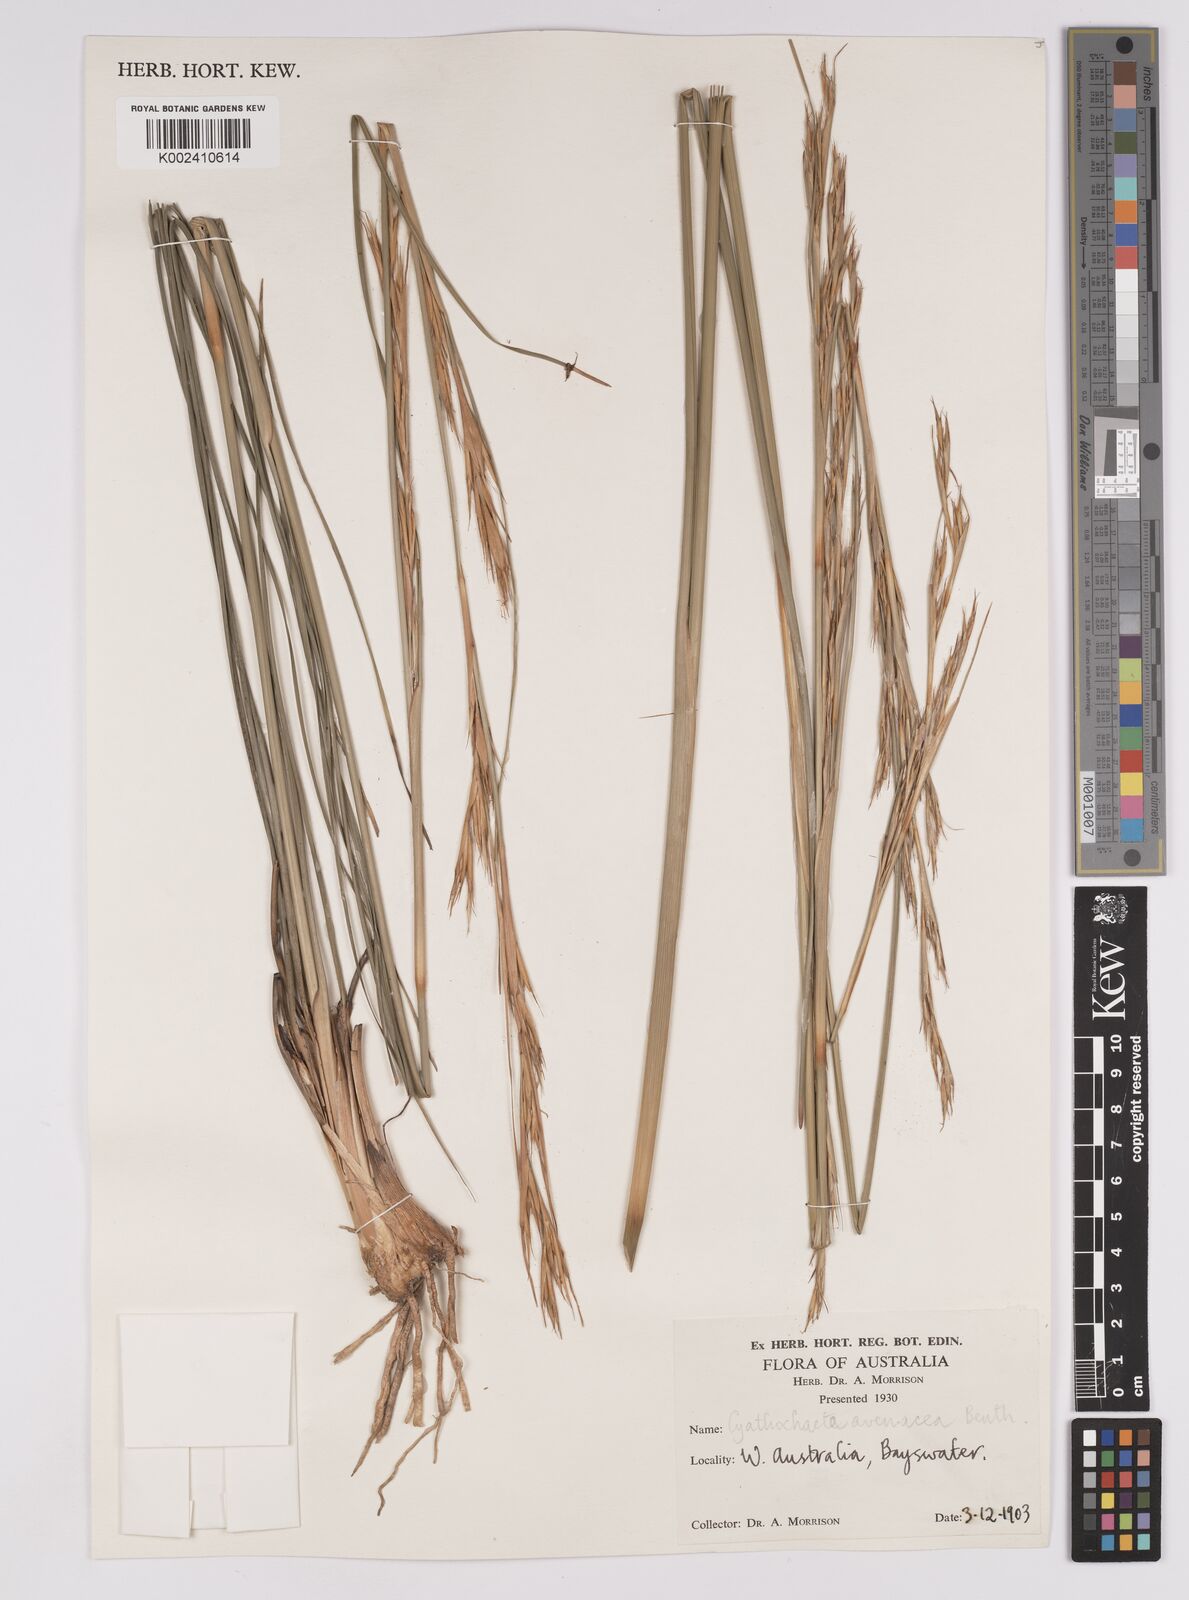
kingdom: Plantae
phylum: Tracheophyta
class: Liliopsida
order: Poales
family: Cyperaceae
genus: Cyathochaeta
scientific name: Cyathochaeta avenacea
